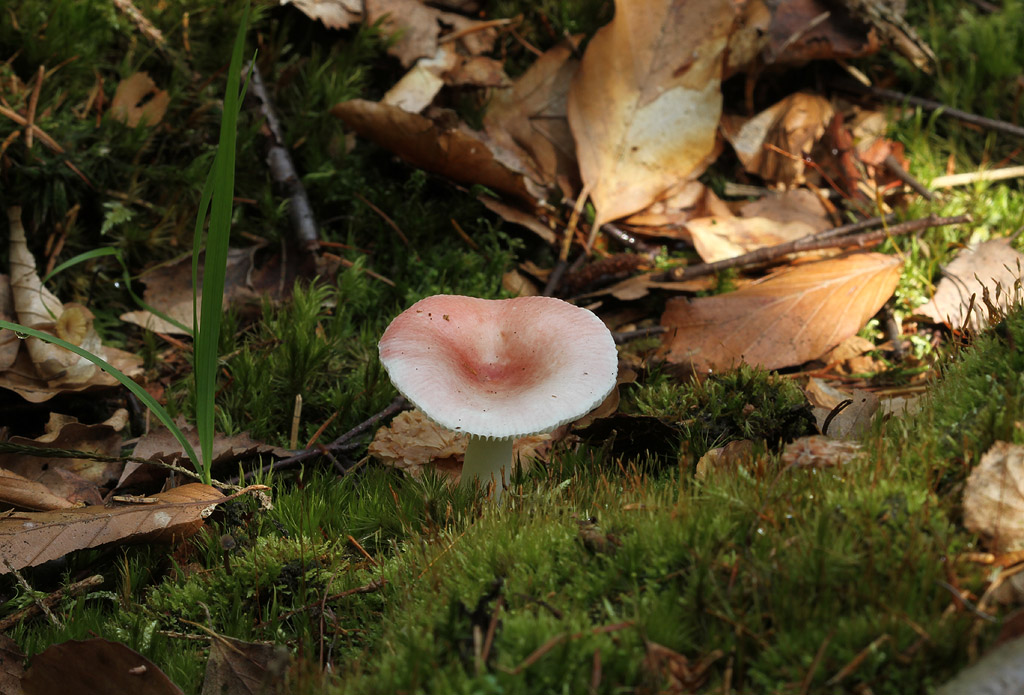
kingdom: Fungi
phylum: Basidiomycota
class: Agaricomycetes
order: Russulales
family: Russulaceae
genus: Russula
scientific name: Russula betularum
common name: bleg gift-skørhat
